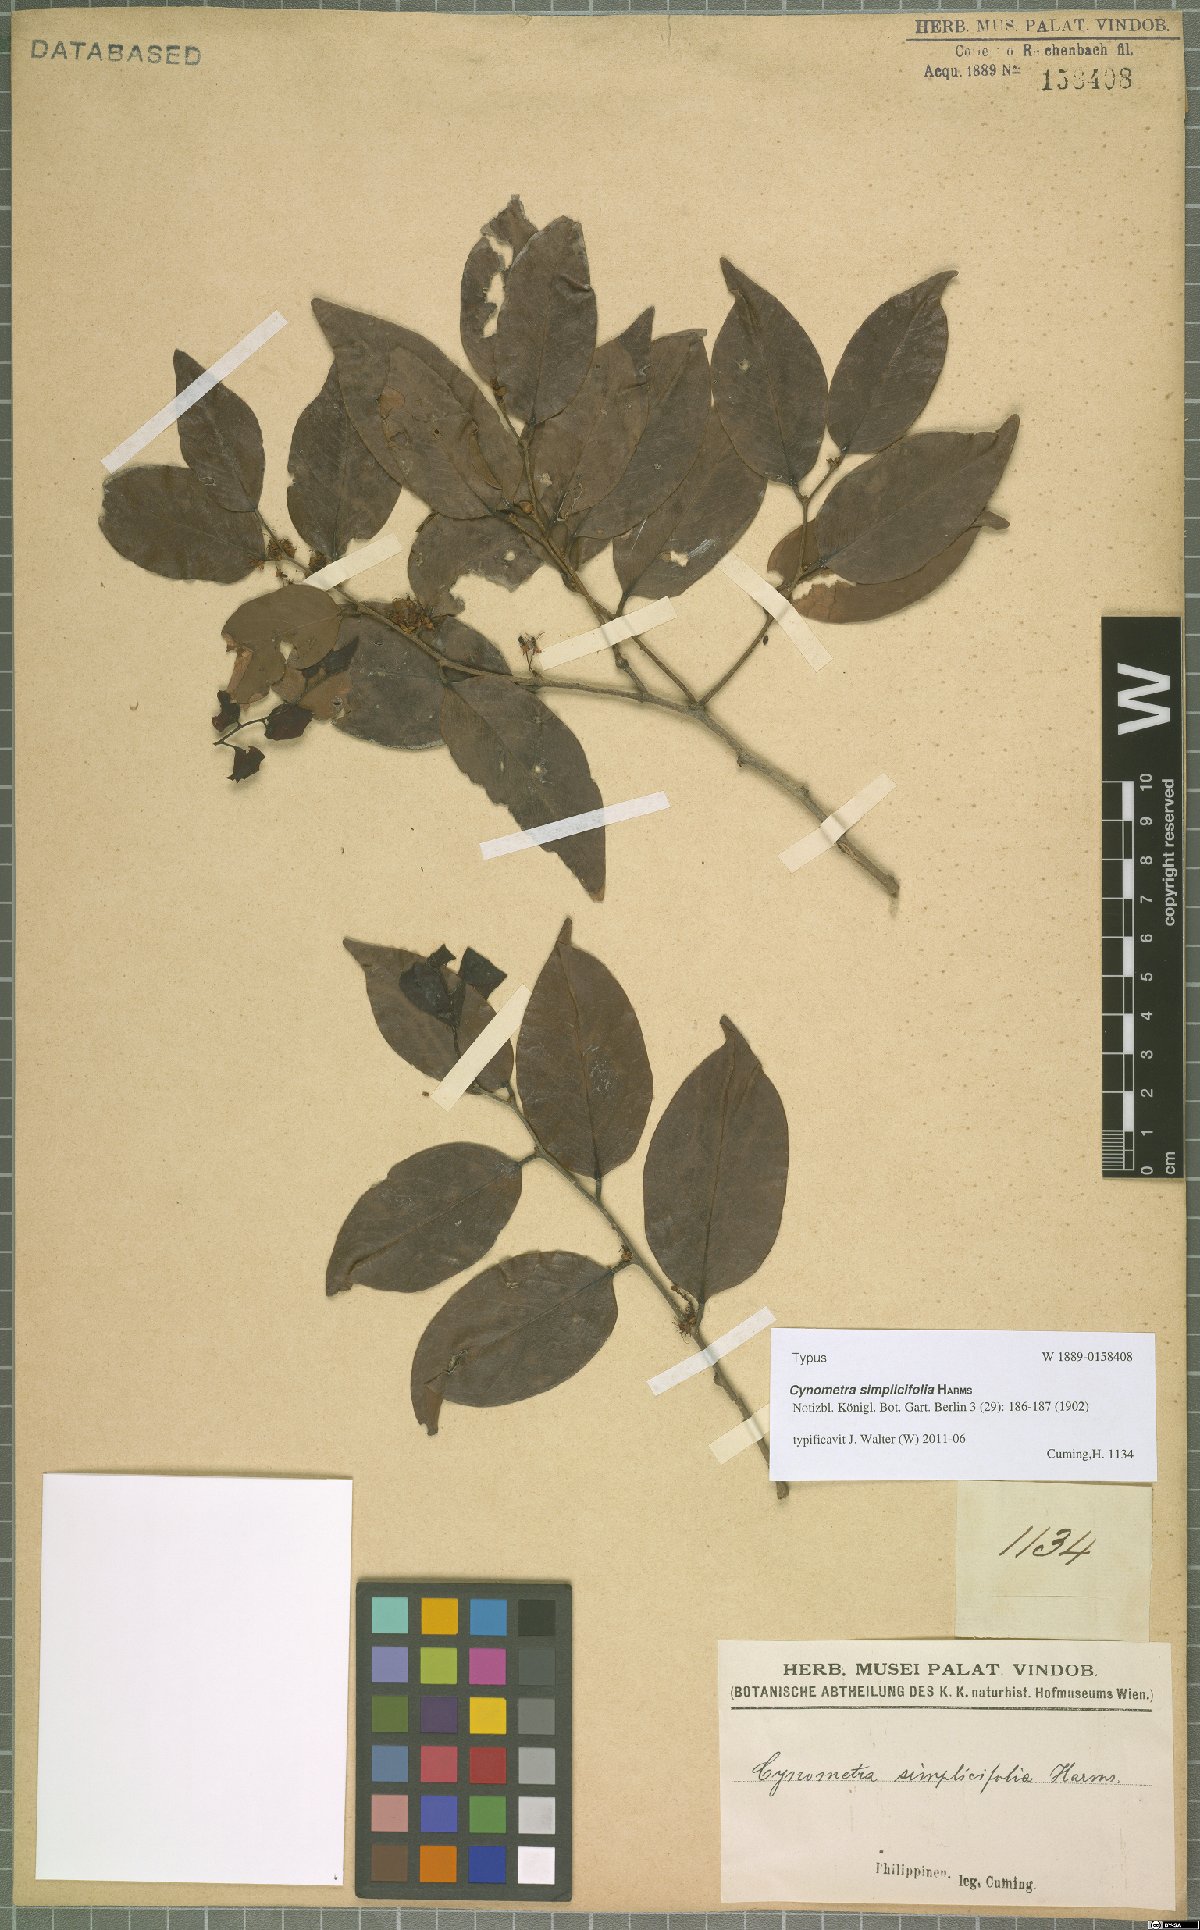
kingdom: Plantae
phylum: Tracheophyta
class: Magnoliopsida
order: Fabales
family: Fabaceae
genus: Cynometra
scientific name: Cynometra simplicifolia
